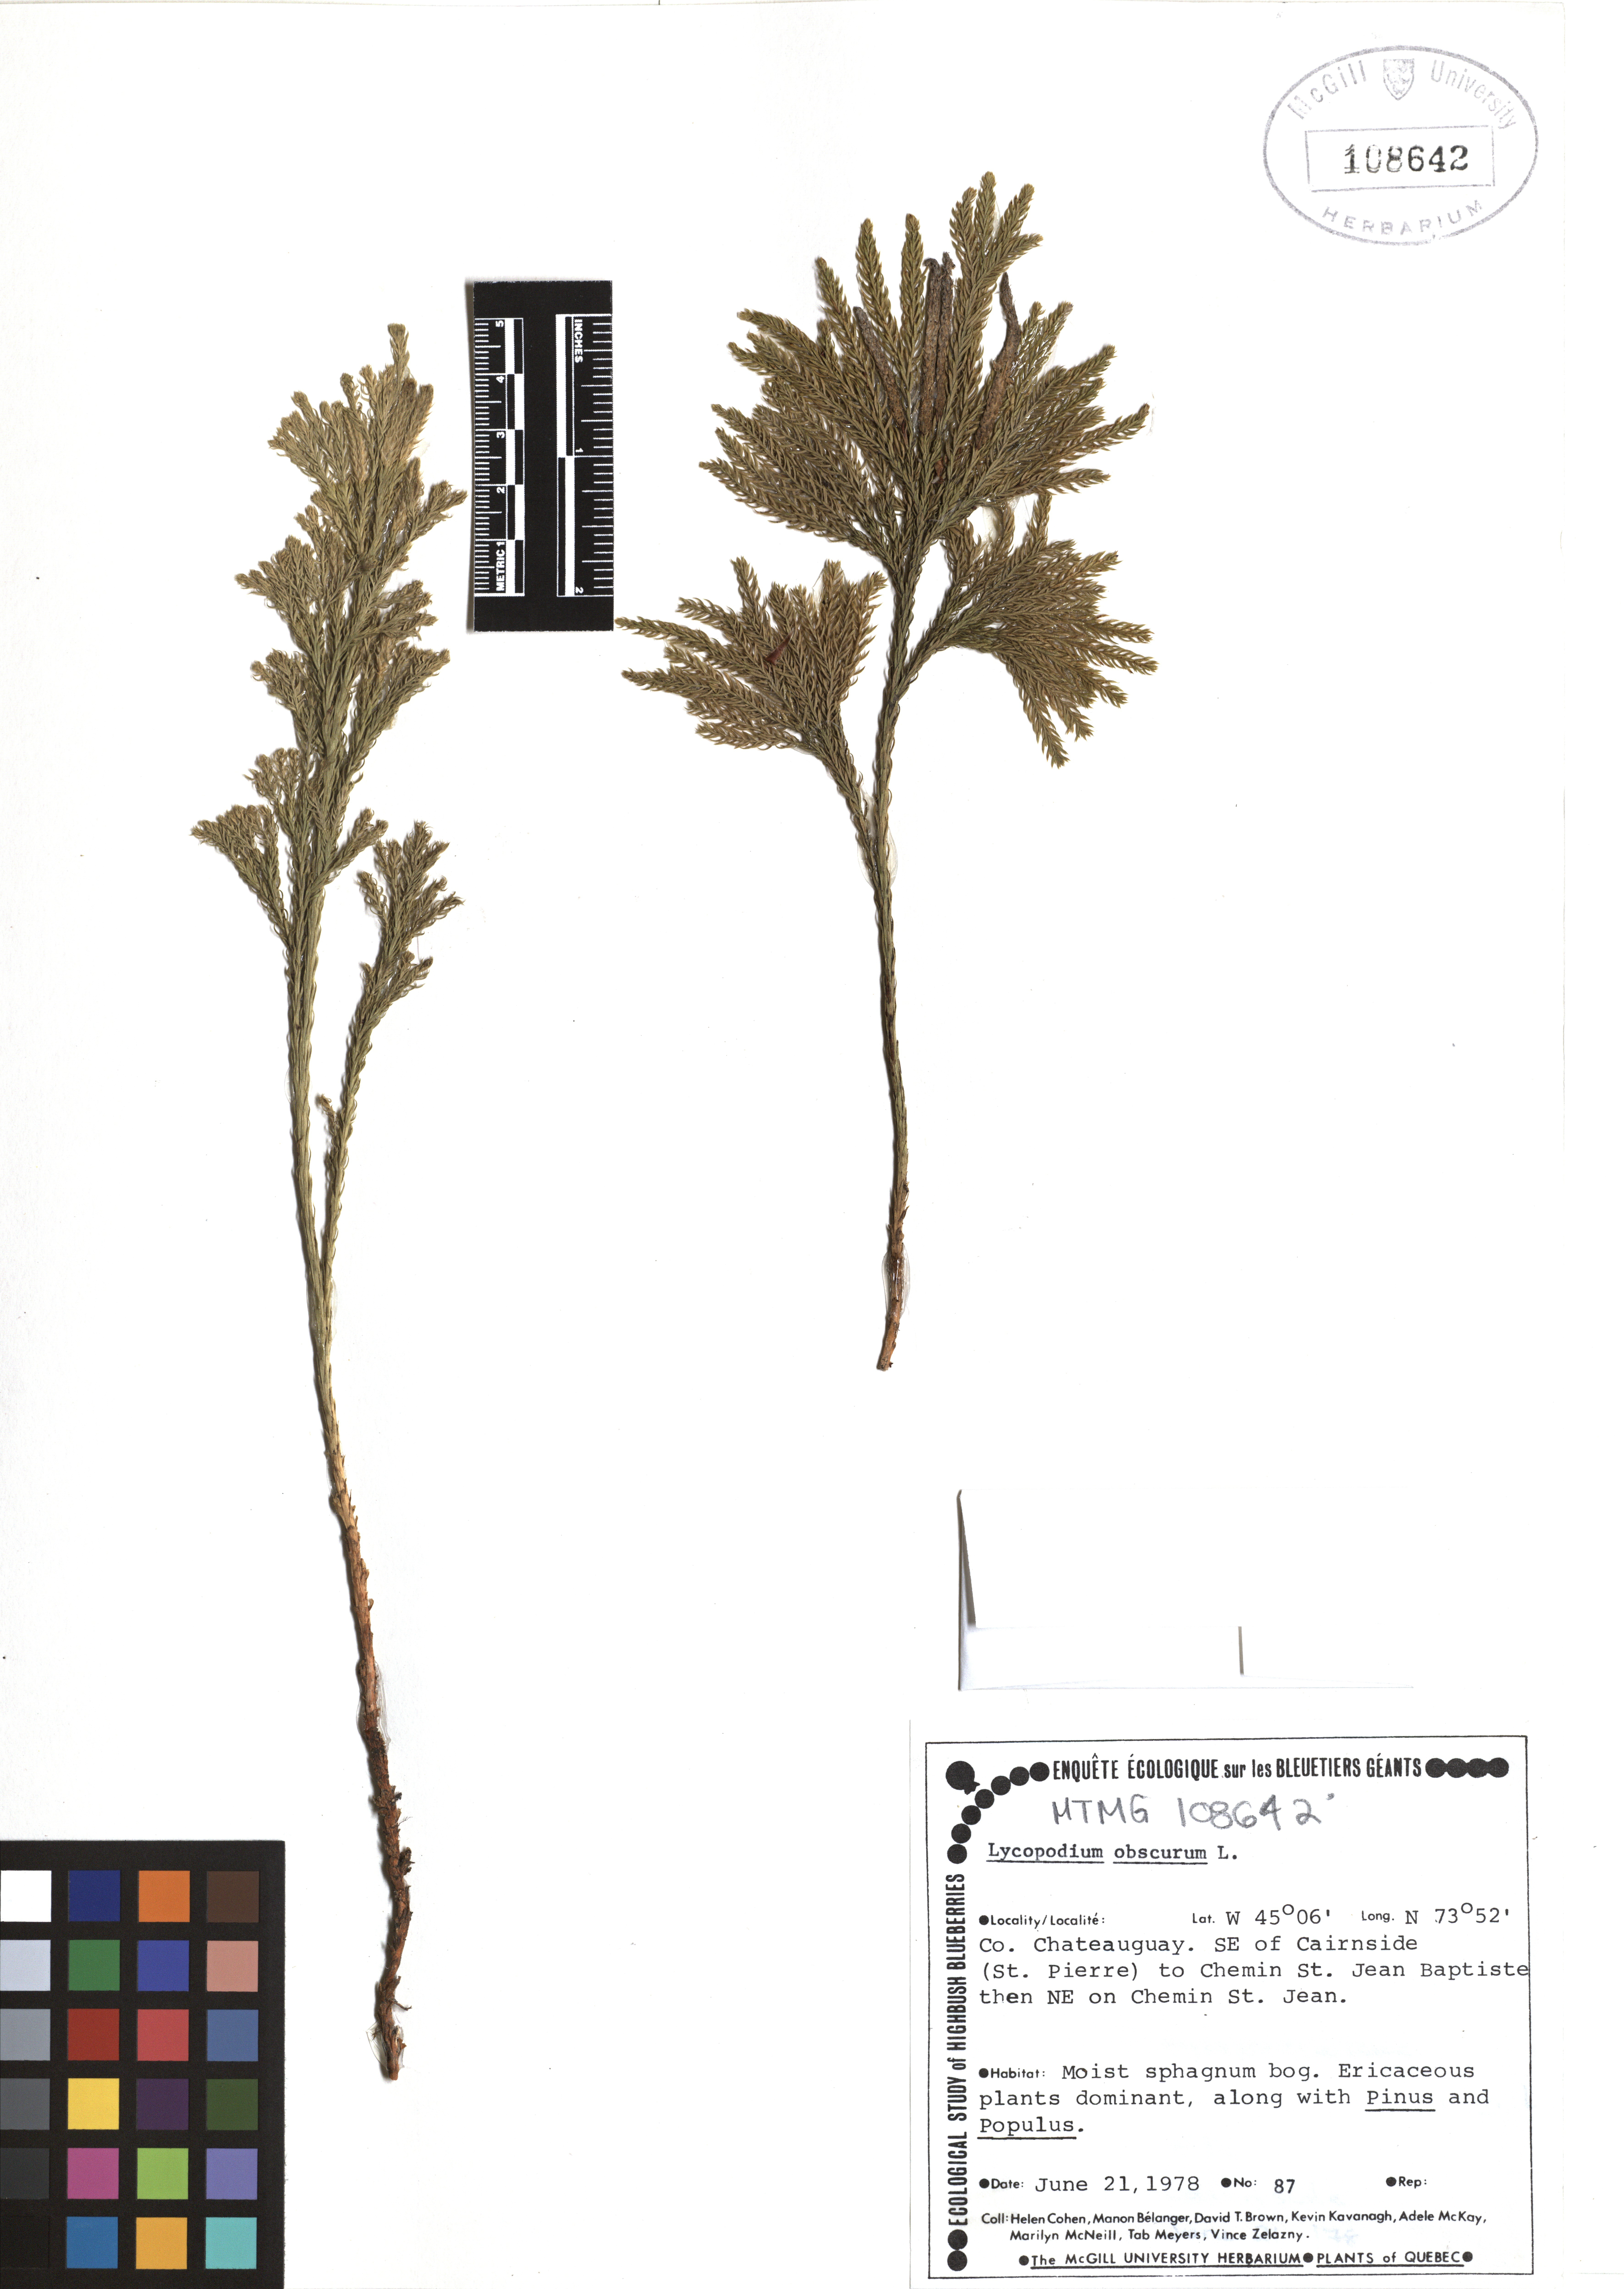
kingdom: Plantae
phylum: Tracheophyta
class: Lycopodiopsida
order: Lycopodiales
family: Lycopodiaceae
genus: Dendrolycopodium
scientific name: Dendrolycopodium obscurum
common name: Common ground-pine
